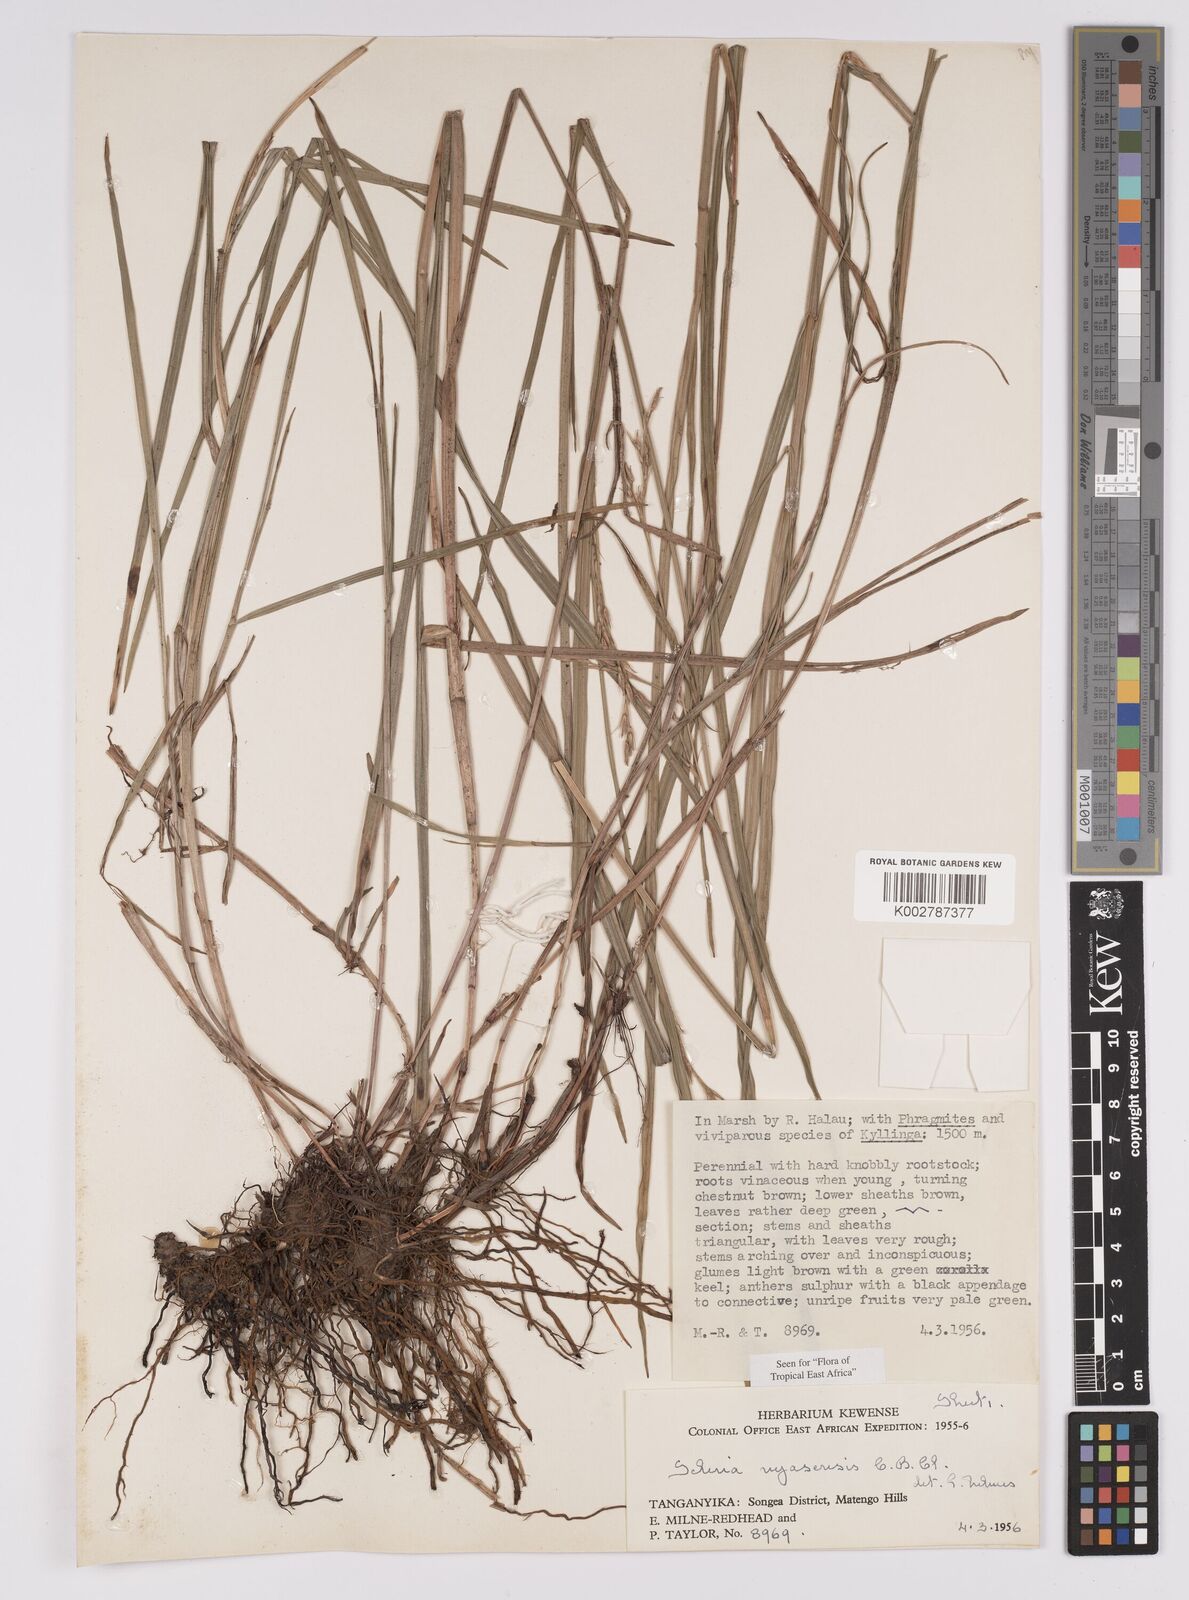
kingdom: Plantae
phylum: Tracheophyta
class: Liliopsida
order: Poales
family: Cyperaceae
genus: Scleria
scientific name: Scleria nyasensis
